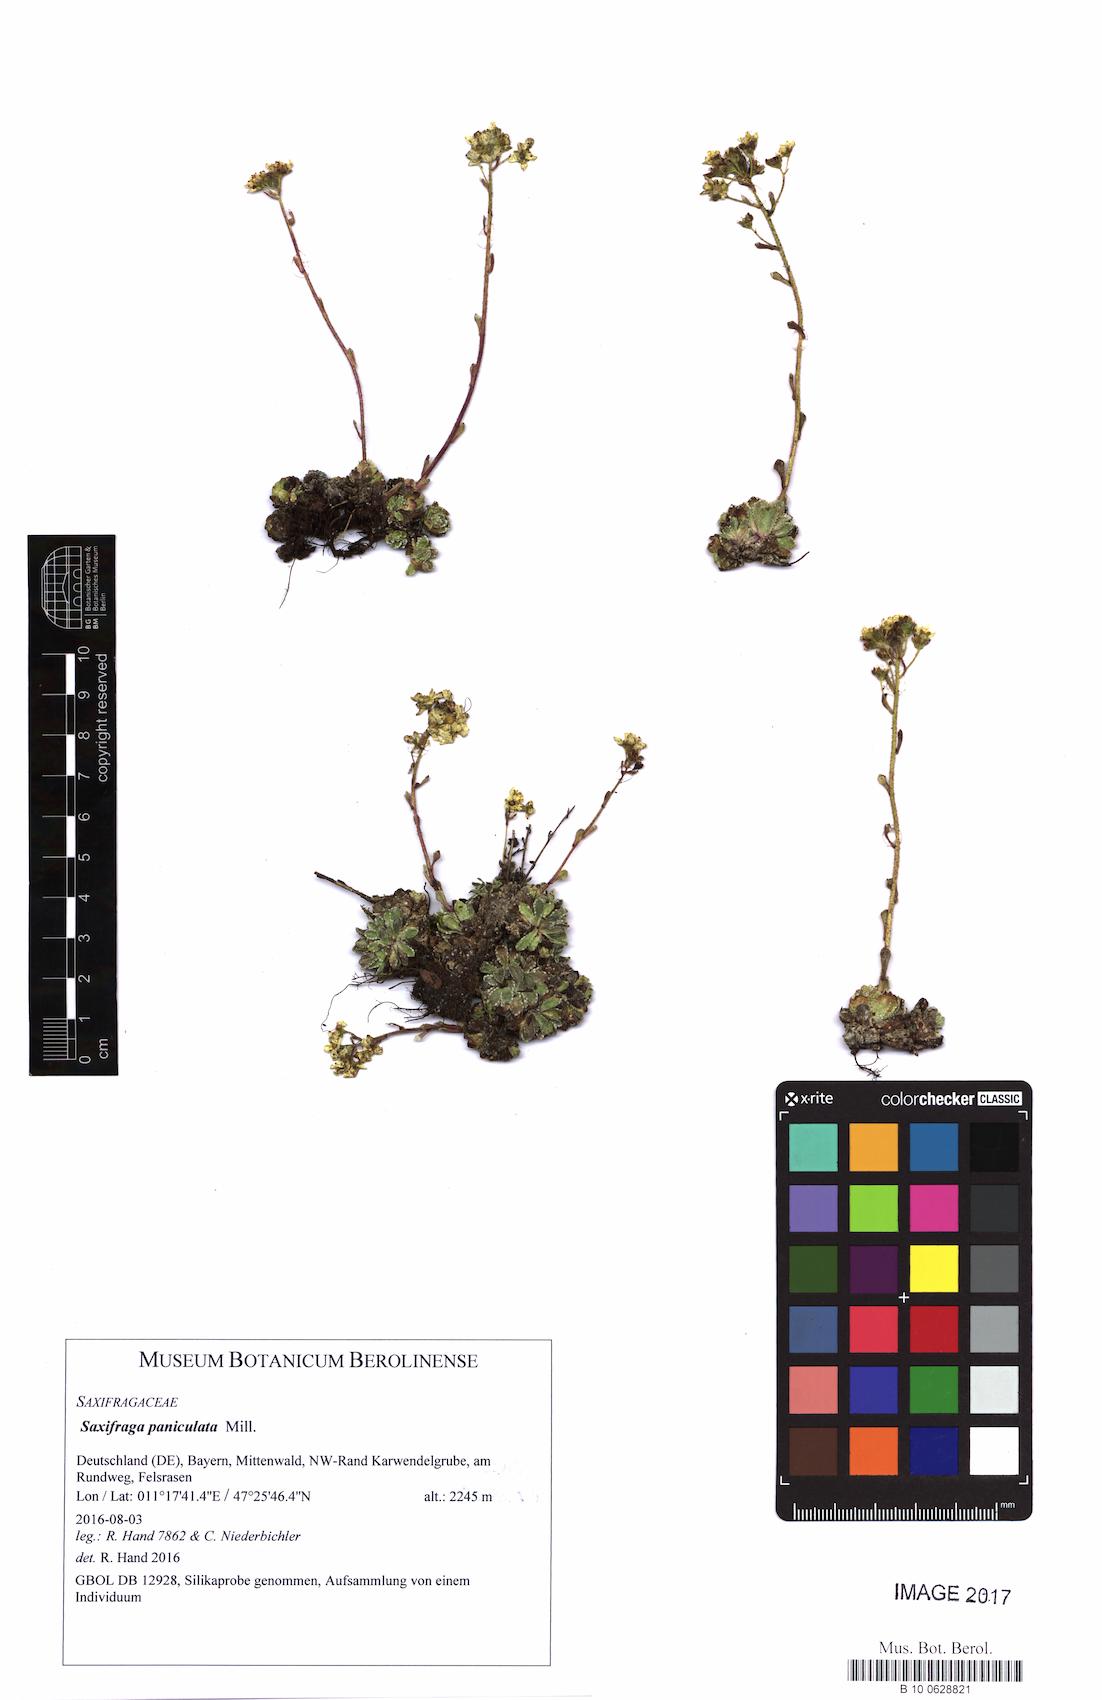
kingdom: Plantae
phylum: Tracheophyta
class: Magnoliopsida
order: Saxifragales
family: Saxifragaceae
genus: Saxifraga
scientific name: Saxifraga paniculata
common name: Livelong saxifrage
